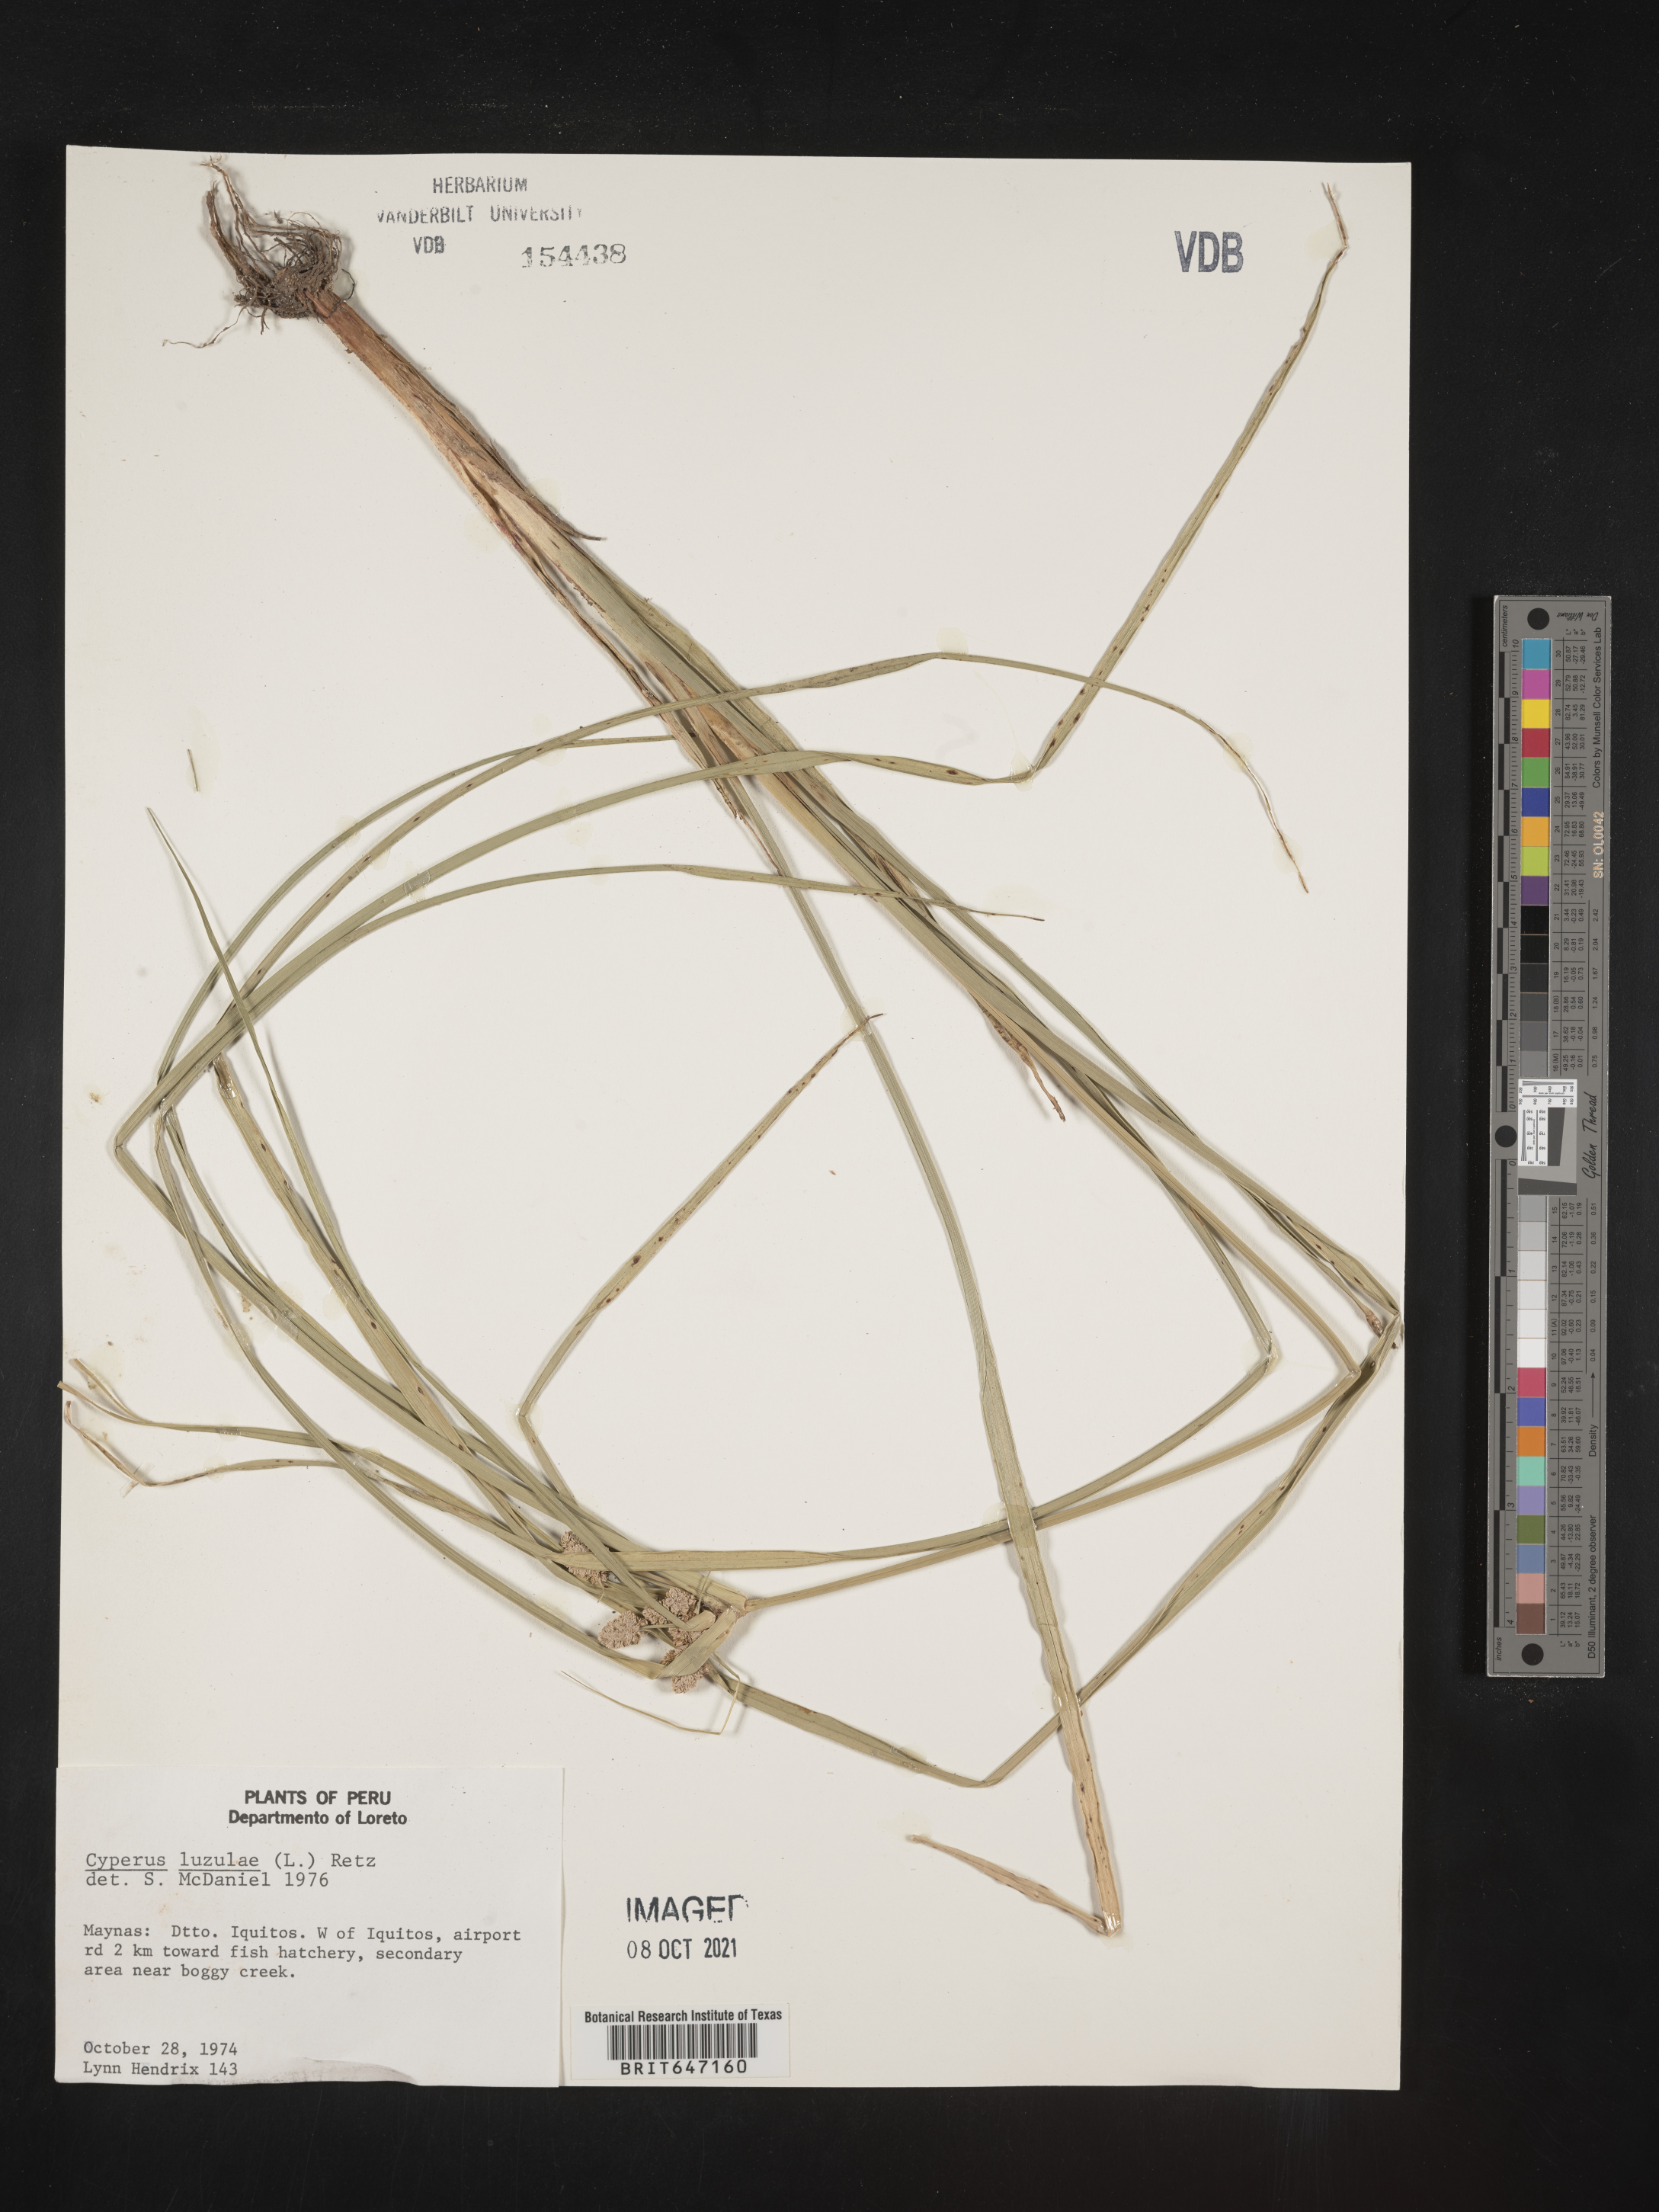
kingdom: Plantae
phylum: Tracheophyta
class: Liliopsida
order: Poales
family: Cyperaceae
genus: Cyperus
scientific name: Cyperus luzulae
